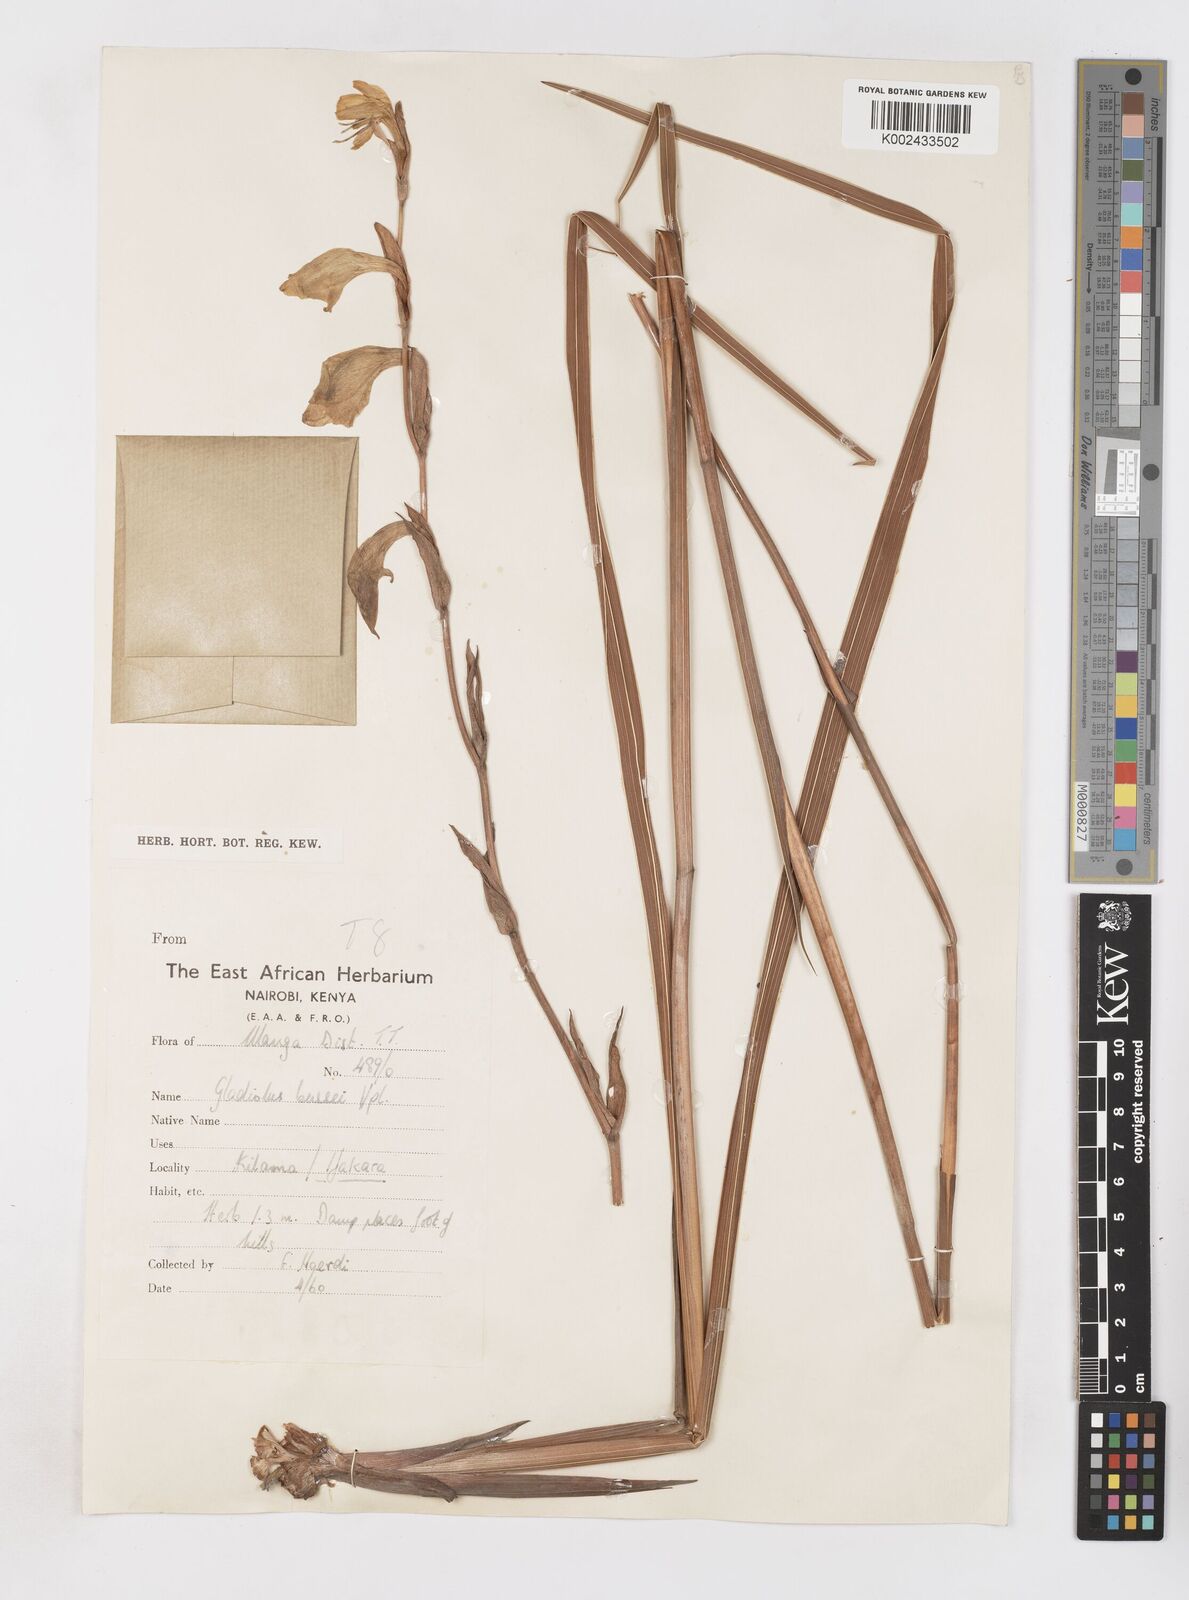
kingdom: Plantae
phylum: Tracheophyta
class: Liliopsida
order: Asparagales
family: Iridaceae
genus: Gladiolus
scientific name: Gladiolus dalenii
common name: Cornflag
